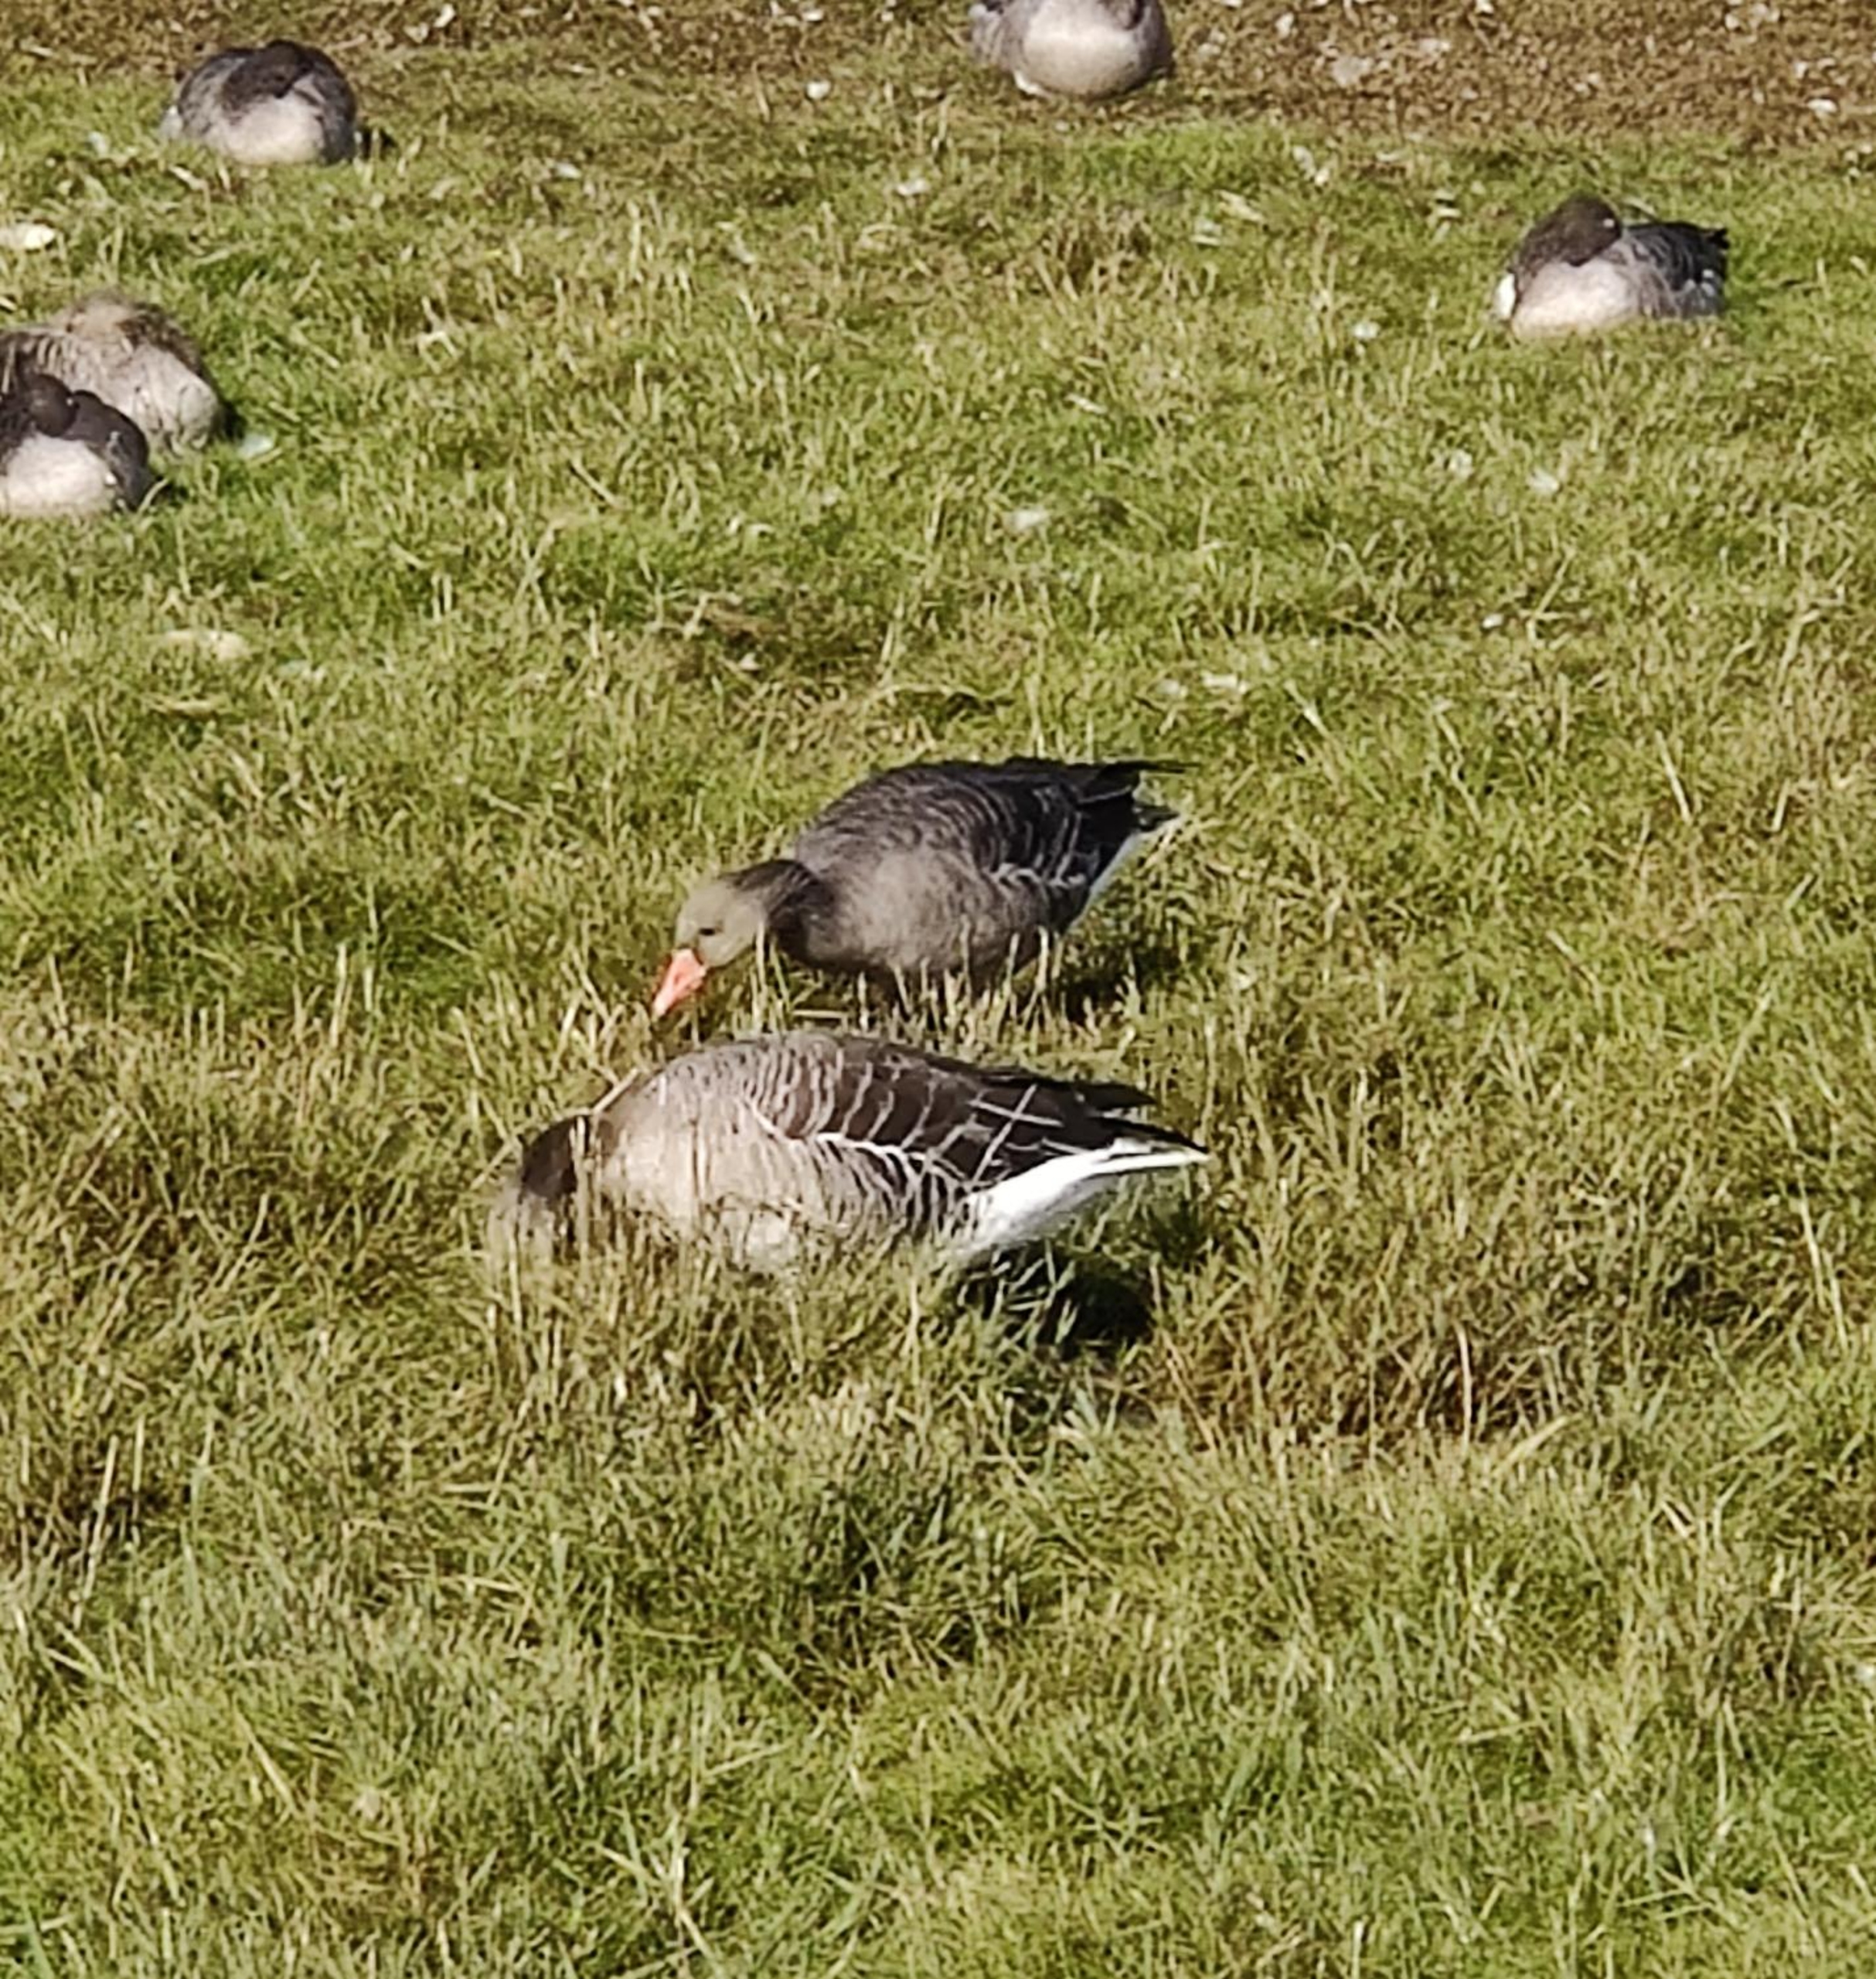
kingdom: Animalia
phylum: Chordata
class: Aves
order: Anseriformes
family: Anatidae
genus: Anser
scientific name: Anser anser
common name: Grågås
